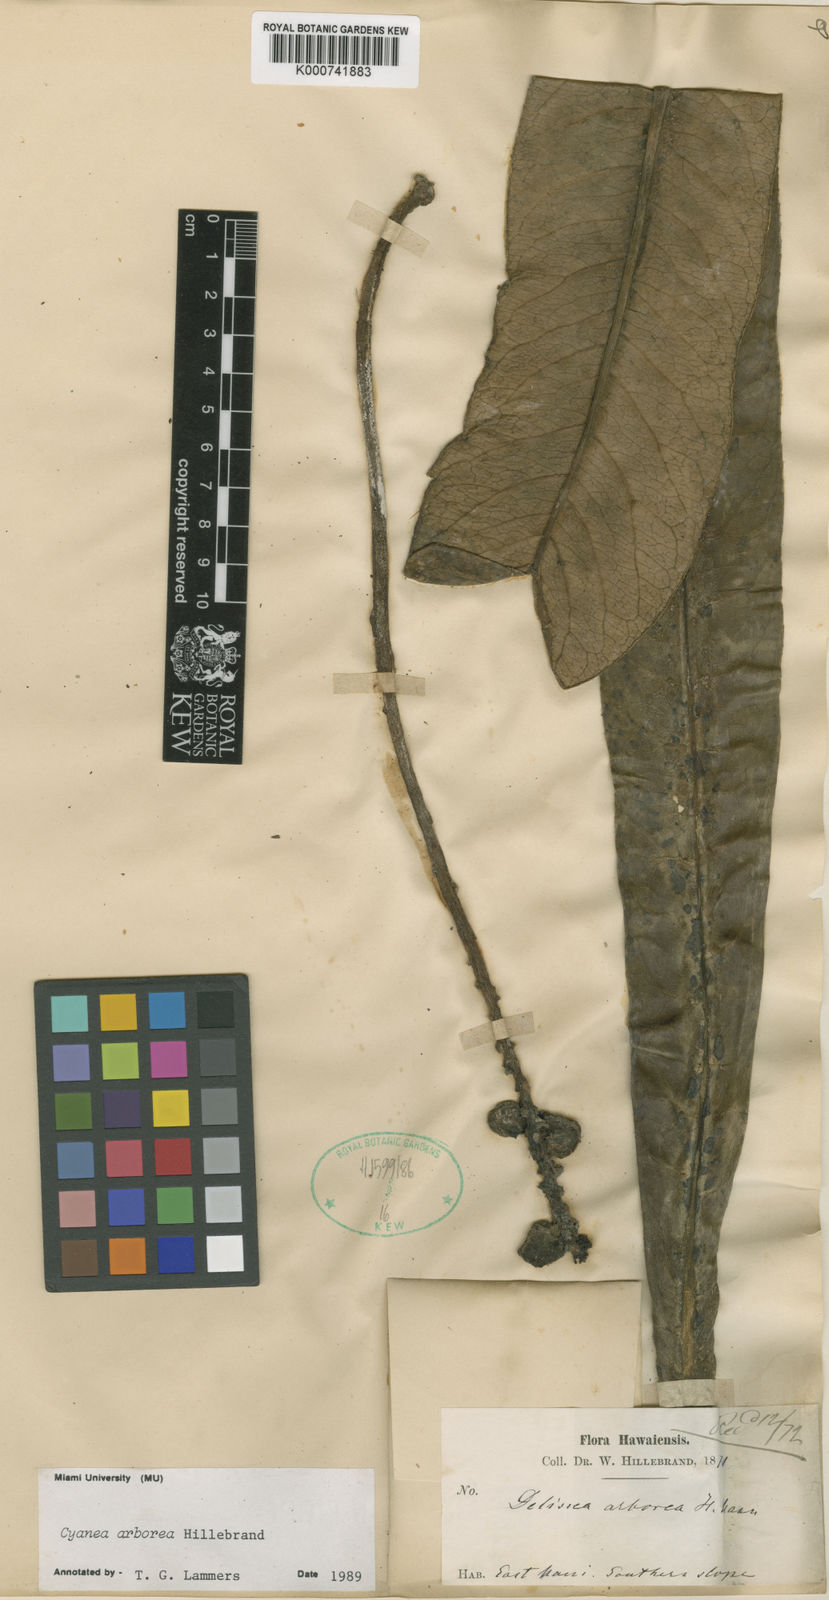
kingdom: Plantae
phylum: Tracheophyta
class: Magnoliopsida
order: Asterales
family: Campanulaceae
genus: Cyanea
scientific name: Cyanea arborea
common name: Tree cyanea
